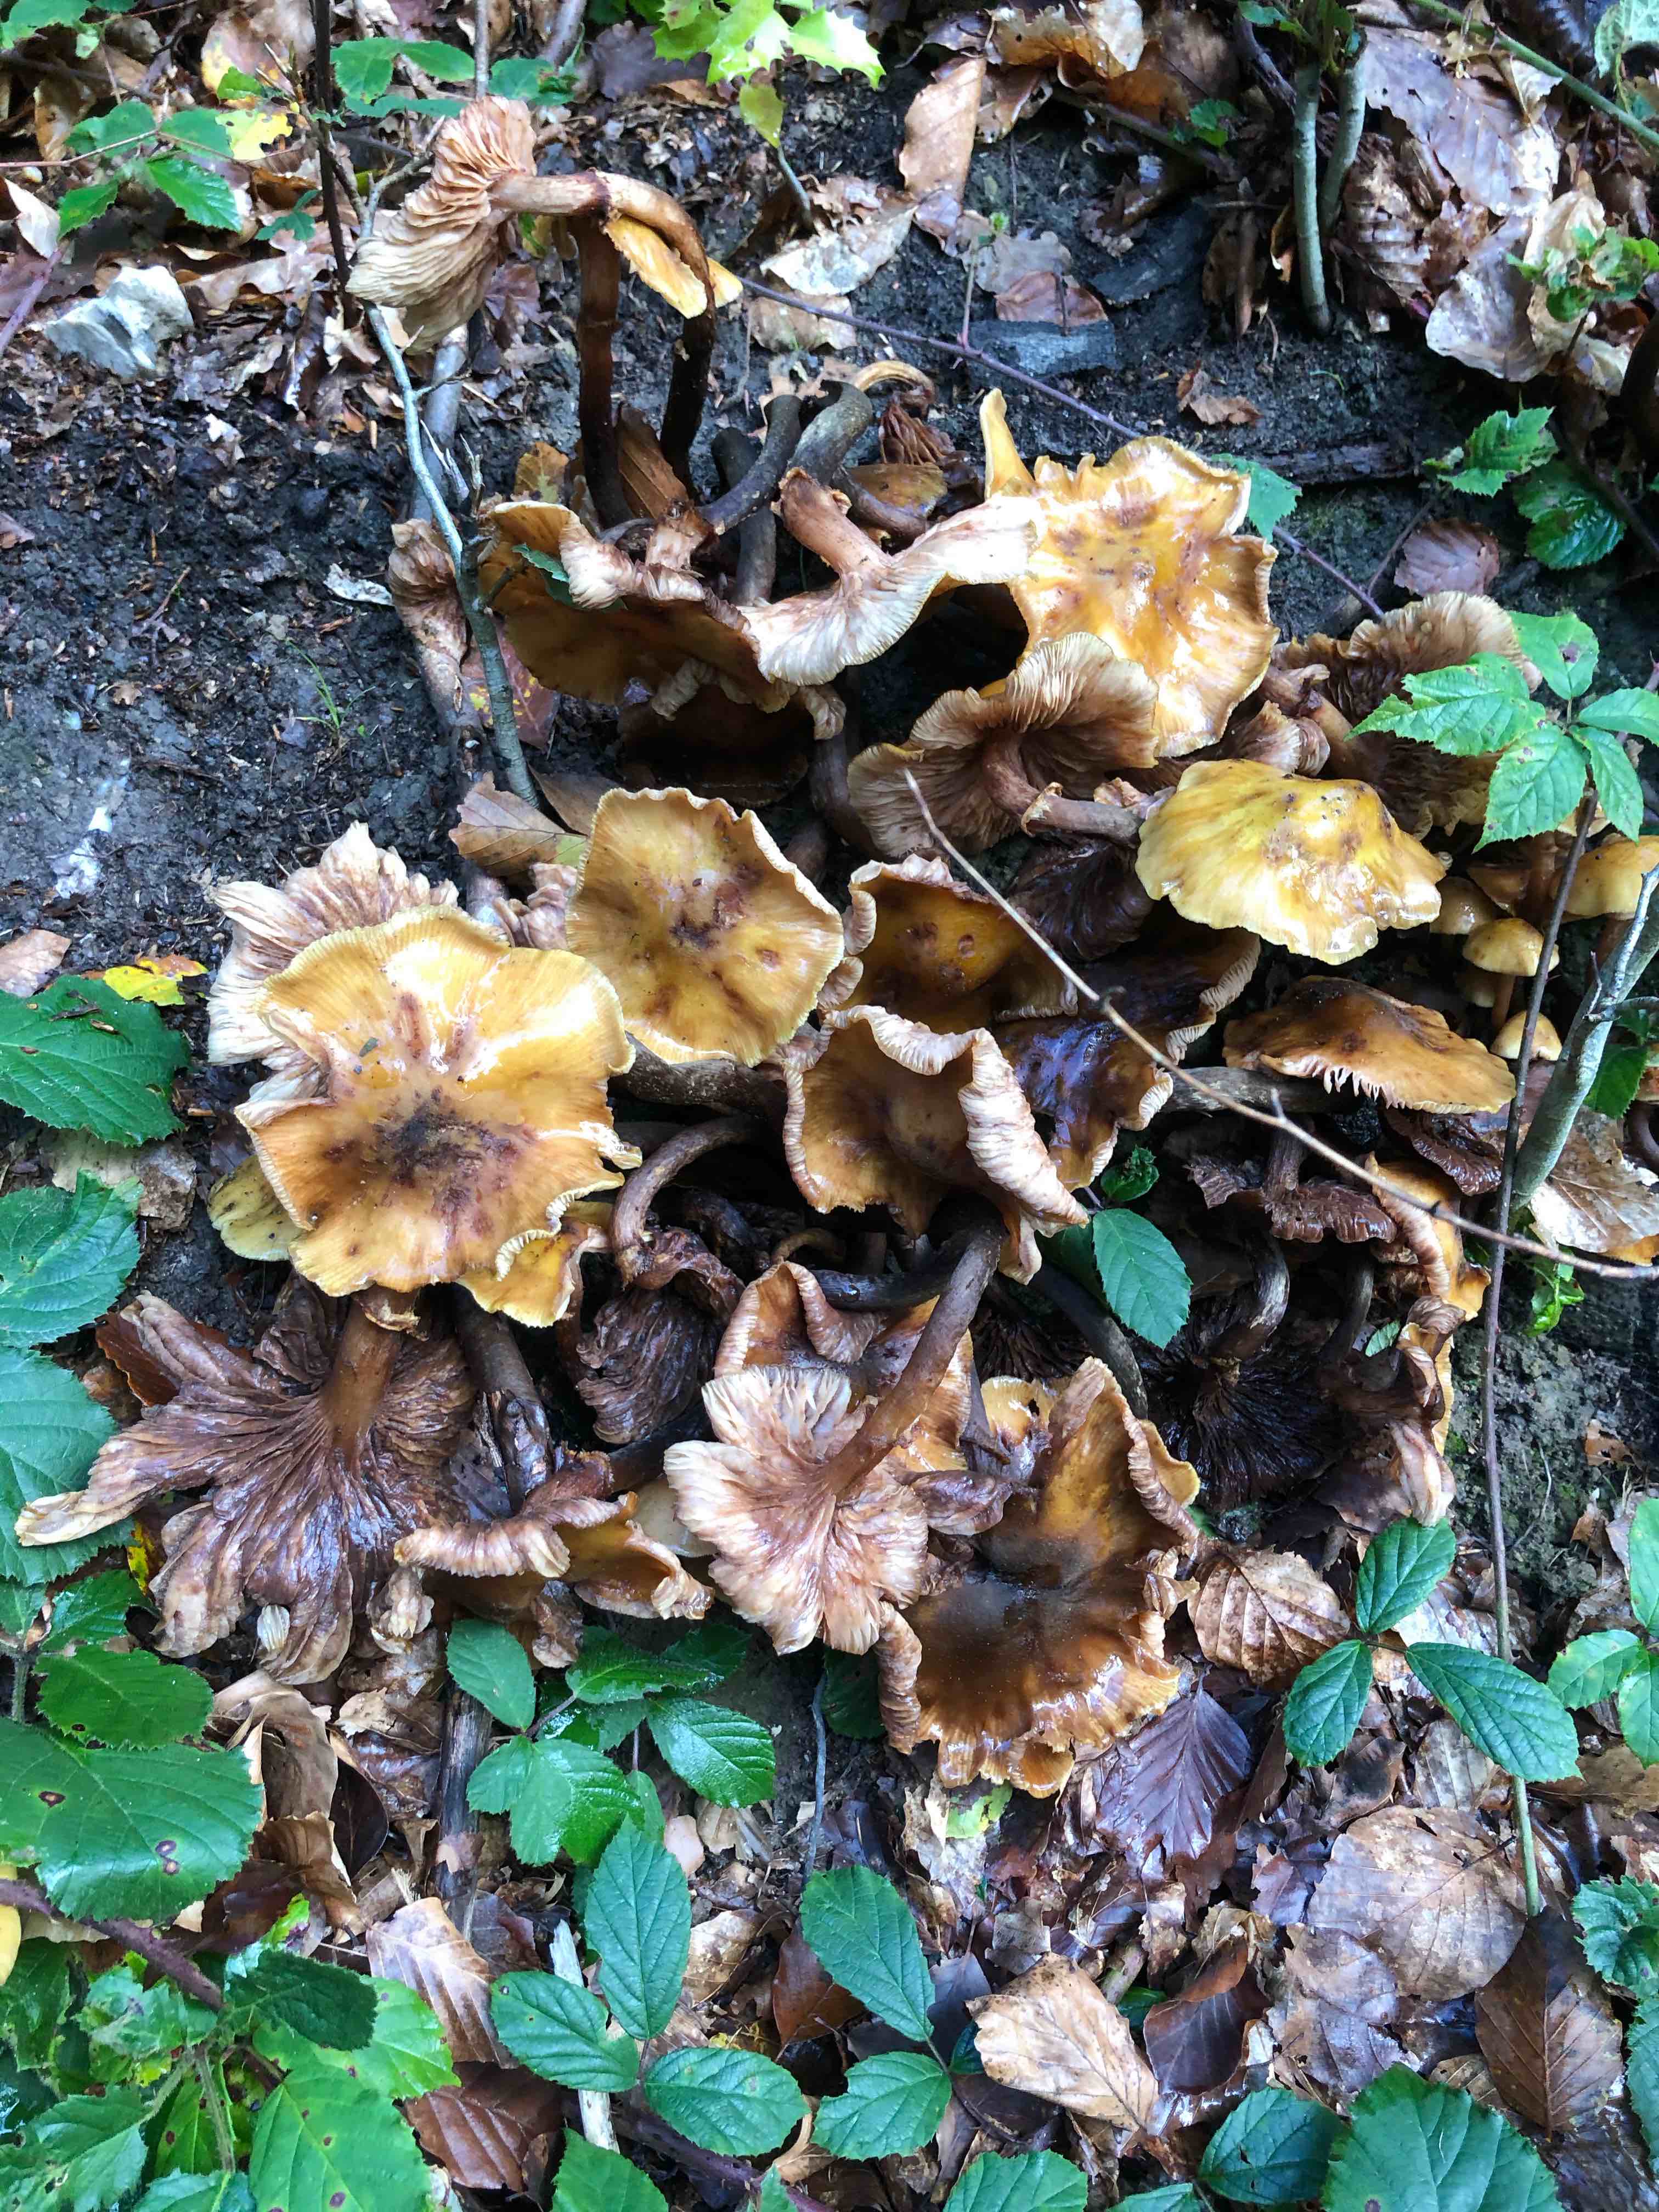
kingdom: Fungi
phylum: Basidiomycota
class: Agaricomycetes
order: Agaricales
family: Physalacriaceae
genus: Armillaria
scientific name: Armillaria mellea
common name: ægte honningsvamp
